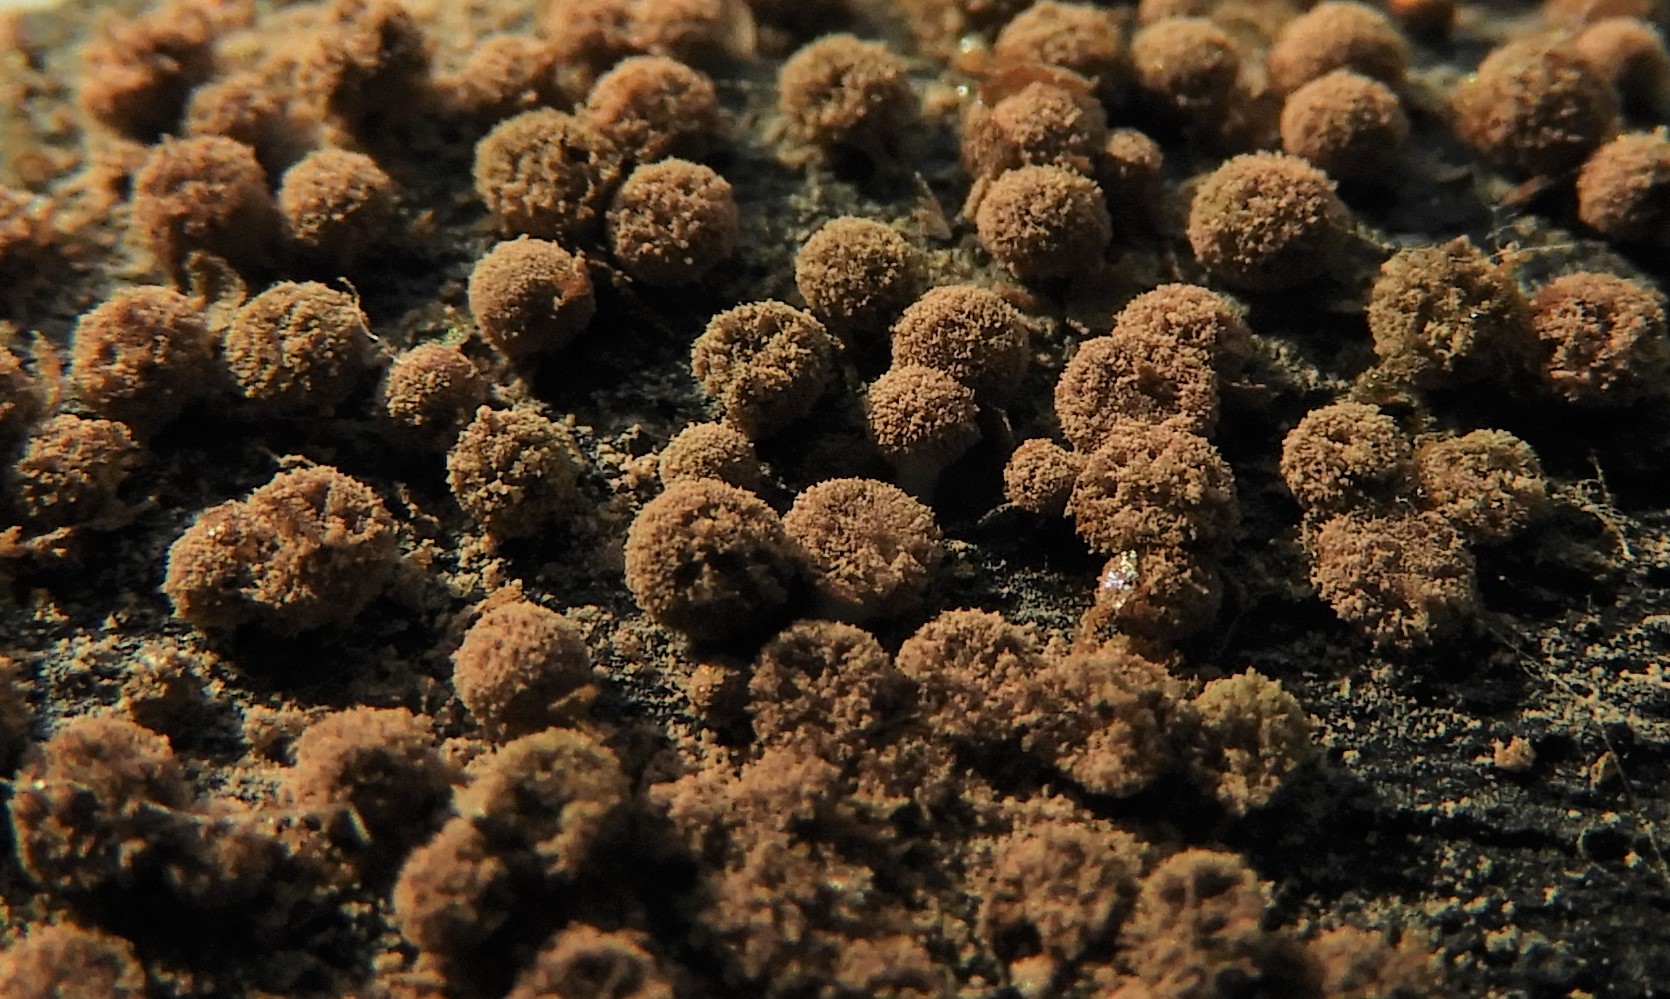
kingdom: Protozoa
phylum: Mycetozoa
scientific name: Mycetozoa
